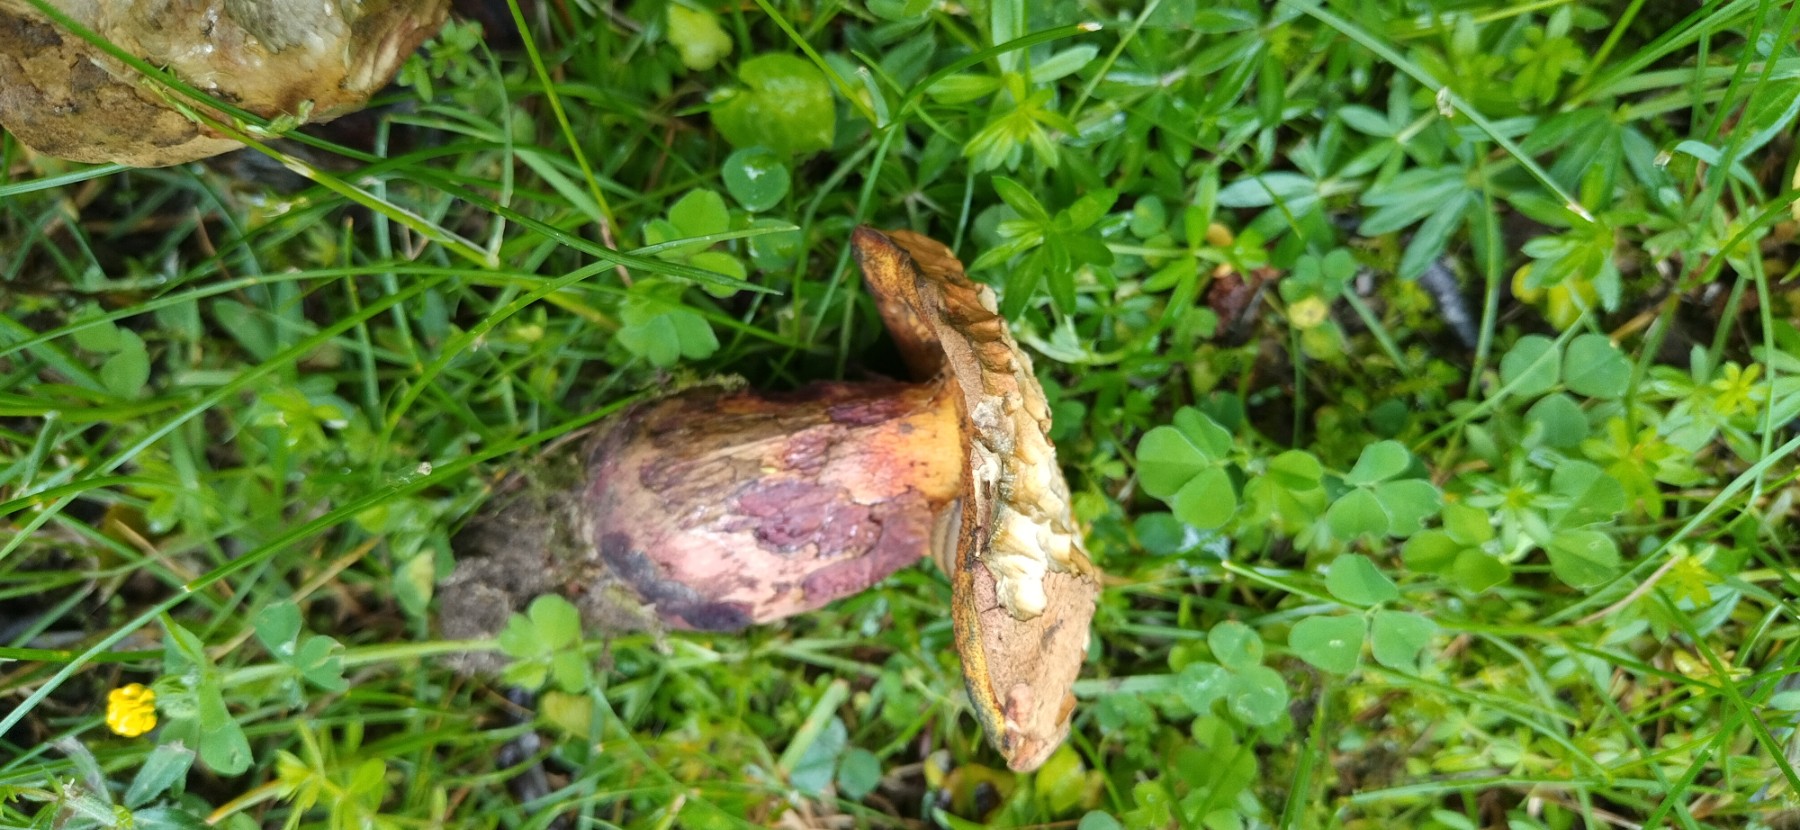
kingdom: Fungi
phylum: Basidiomycota
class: Agaricomycetes
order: Boletales
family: Boletaceae
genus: Suillellus
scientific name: Suillellus queletii
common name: glatstokket indigorørhat
